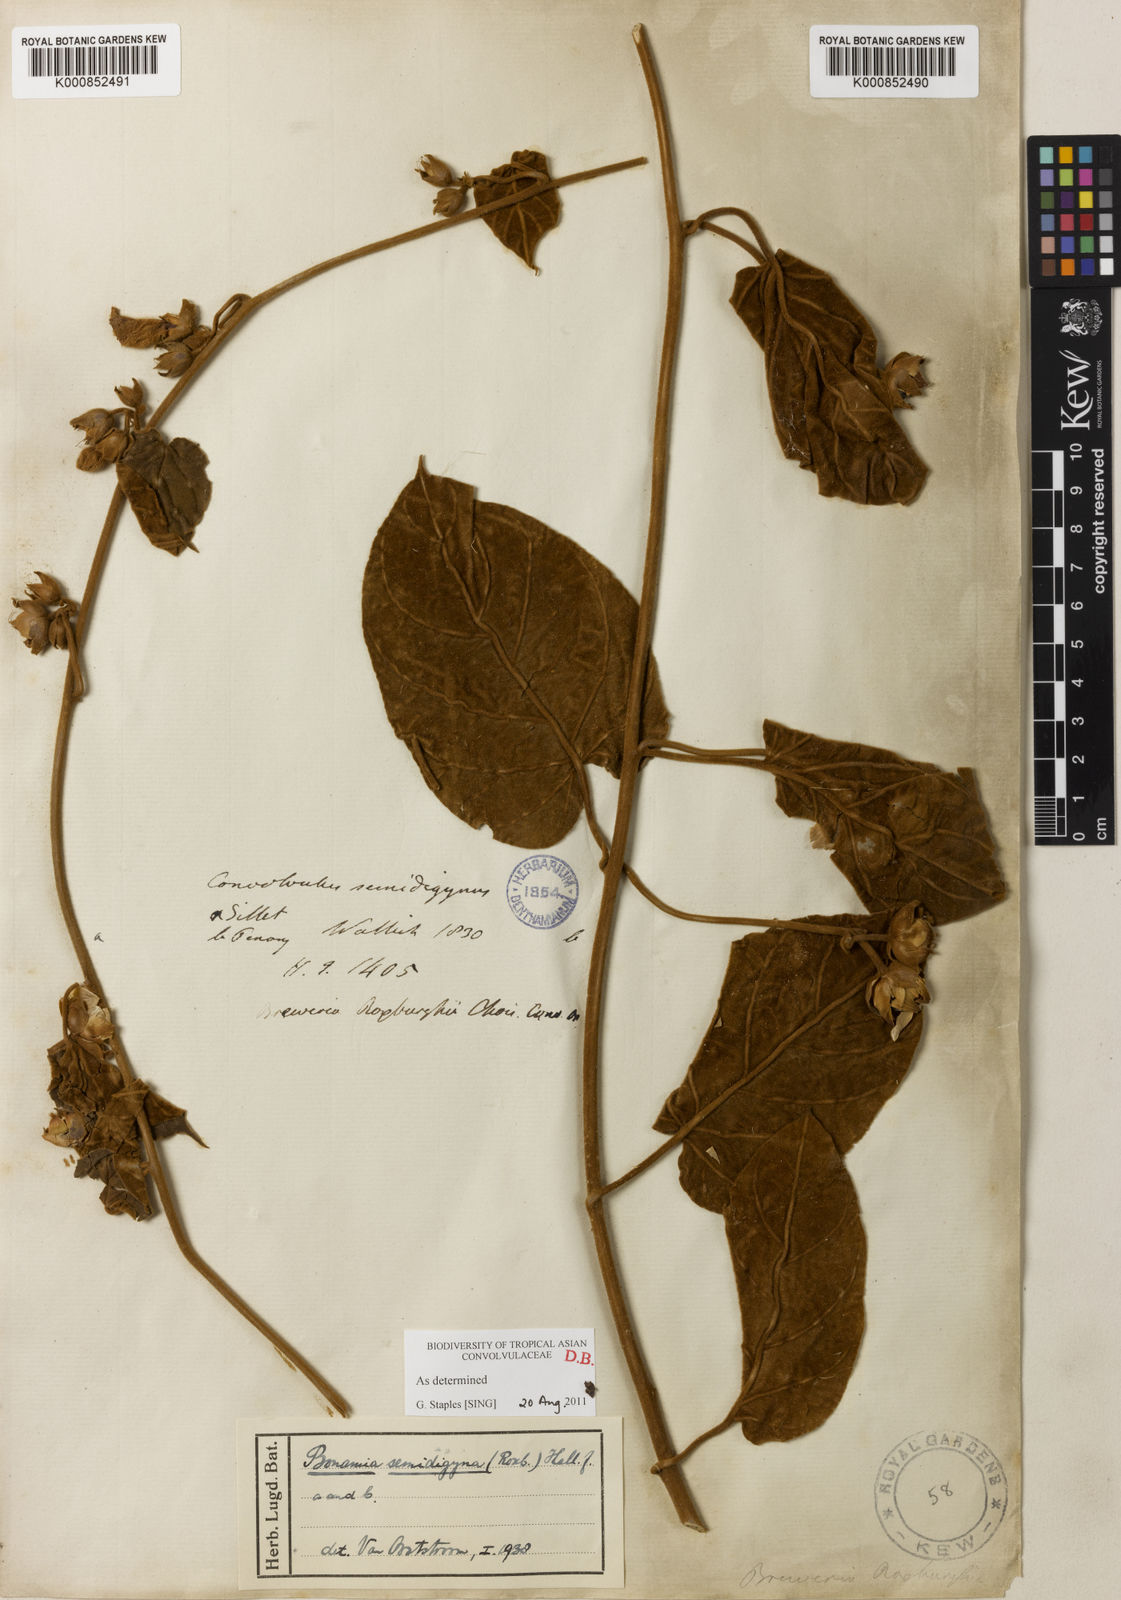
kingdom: Plantae
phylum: Tracheophyta
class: Magnoliopsida
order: Solanales
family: Convolvulaceae
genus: Bonamia
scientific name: Bonamia semidigyna
